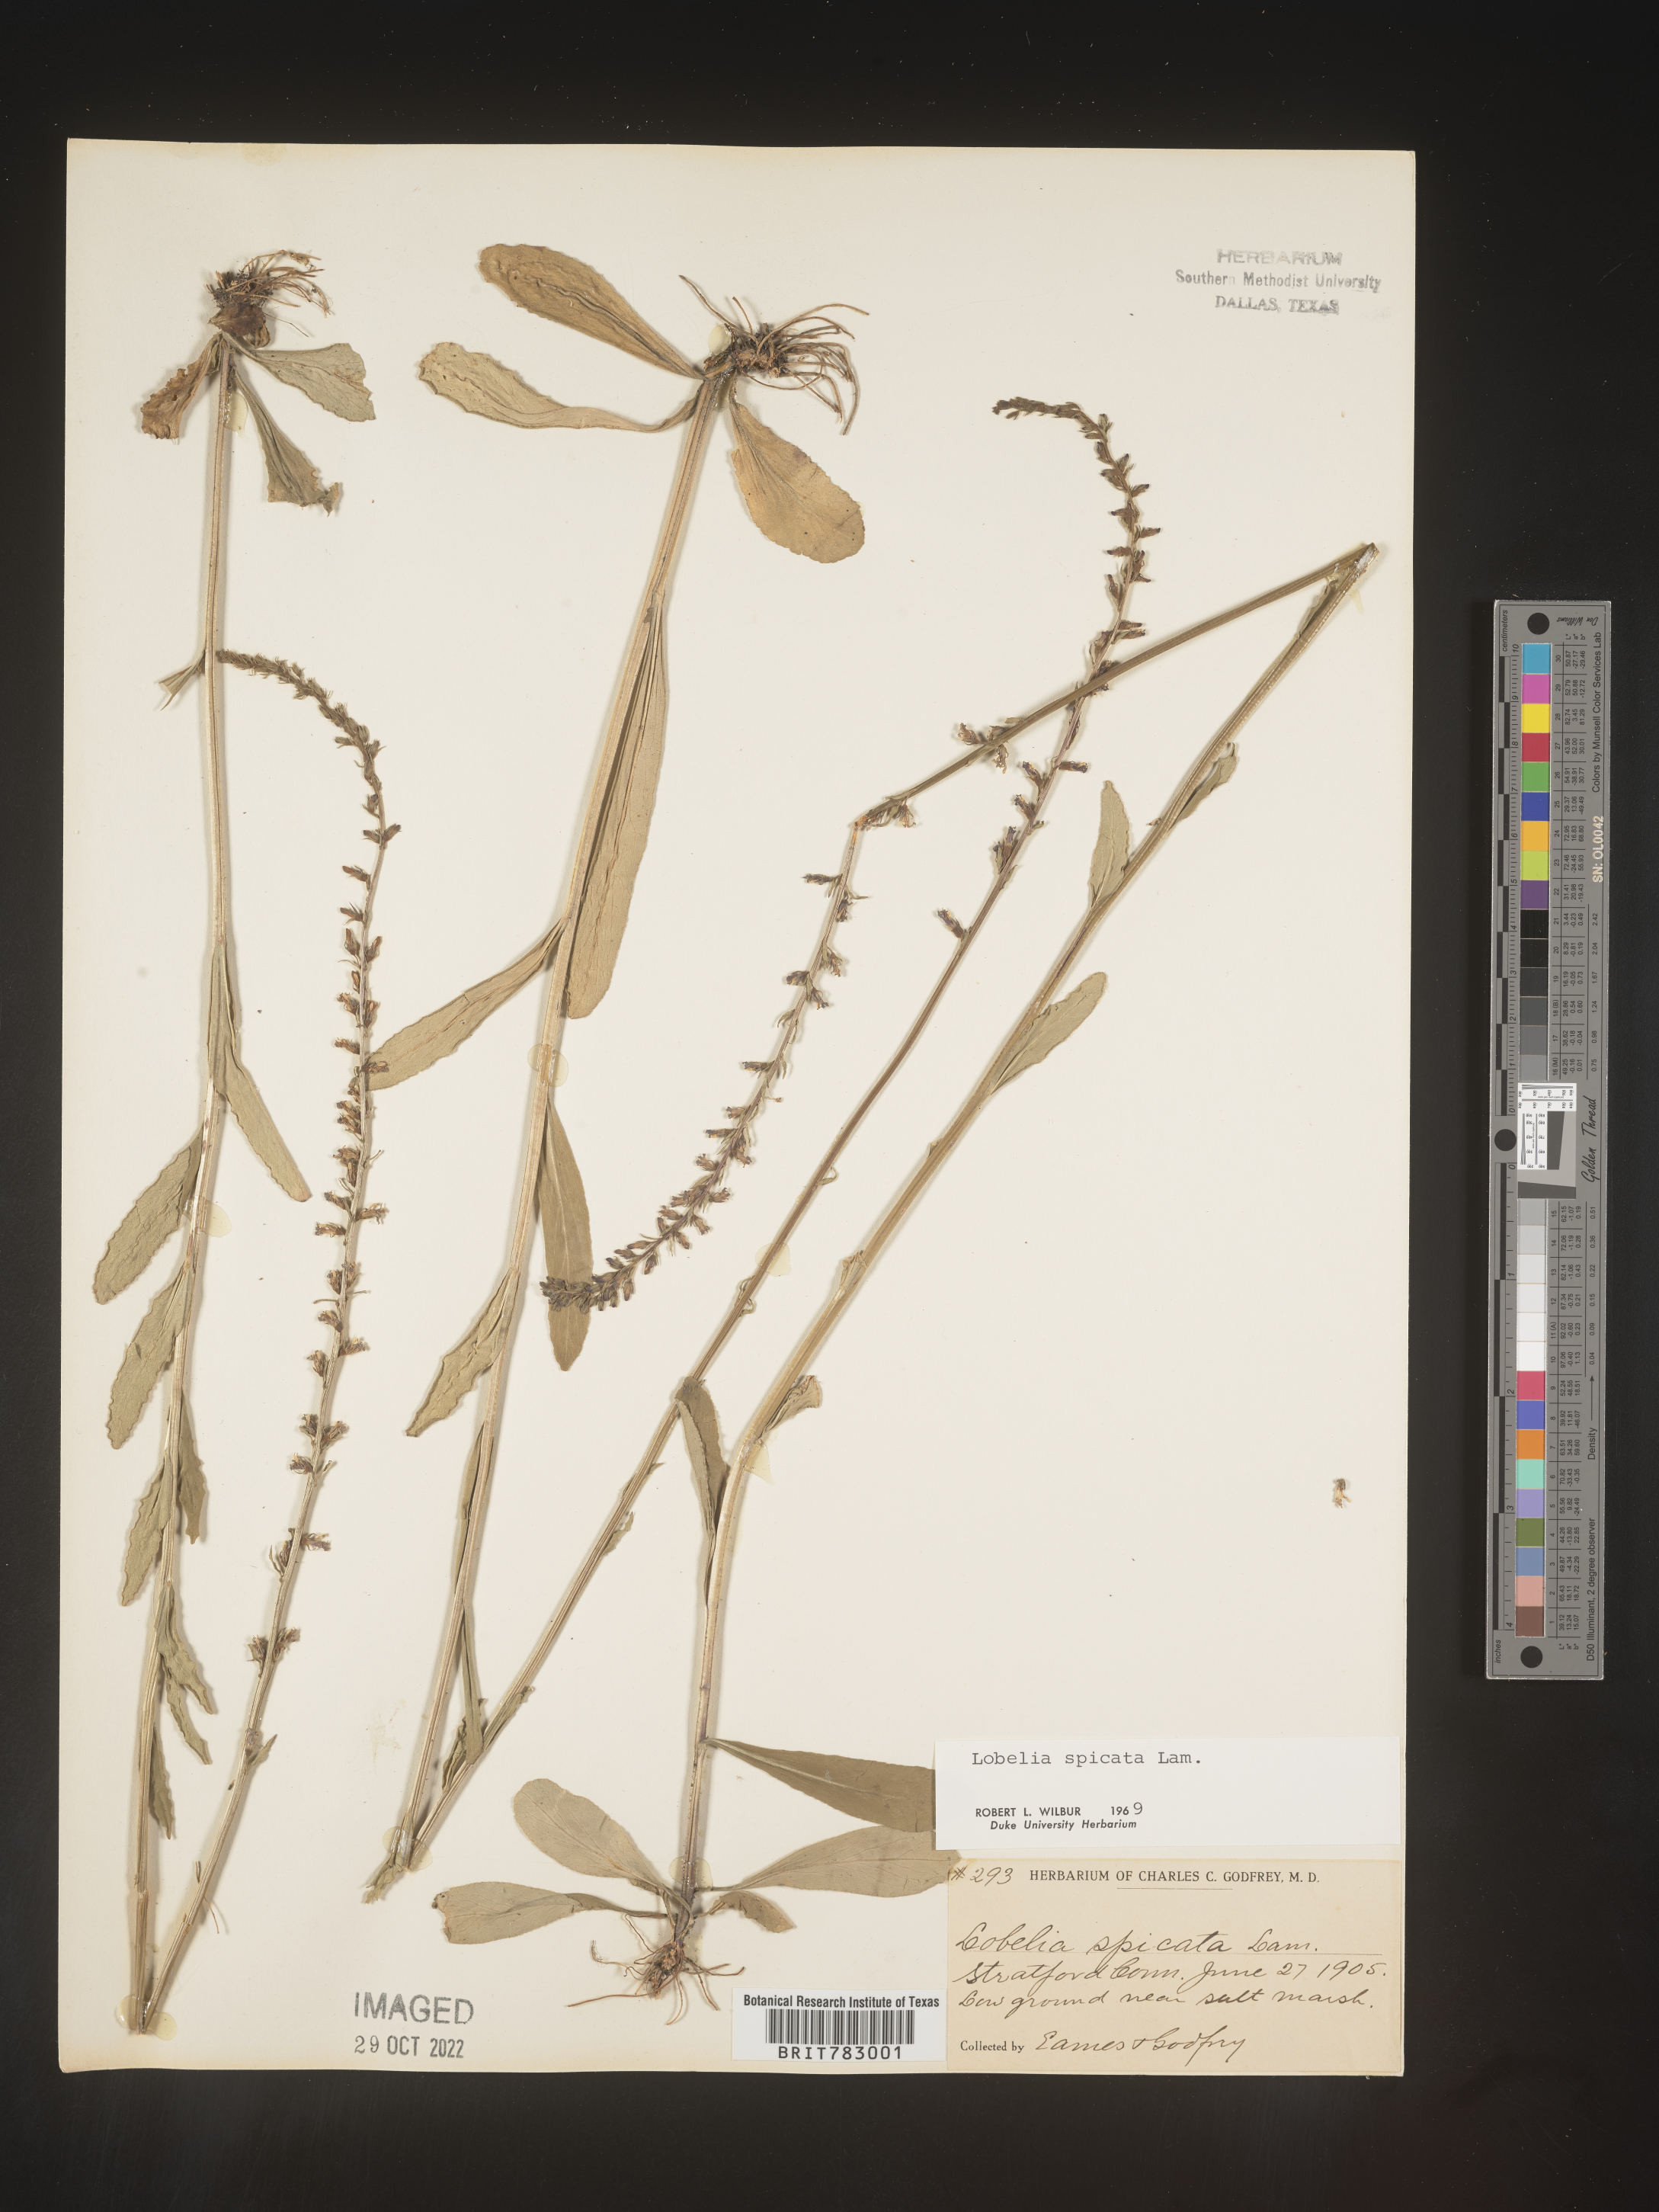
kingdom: Plantae
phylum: Tracheophyta
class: Magnoliopsida
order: Asterales
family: Campanulaceae
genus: Lobelia
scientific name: Lobelia spicata
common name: Pale-spike lobelia
